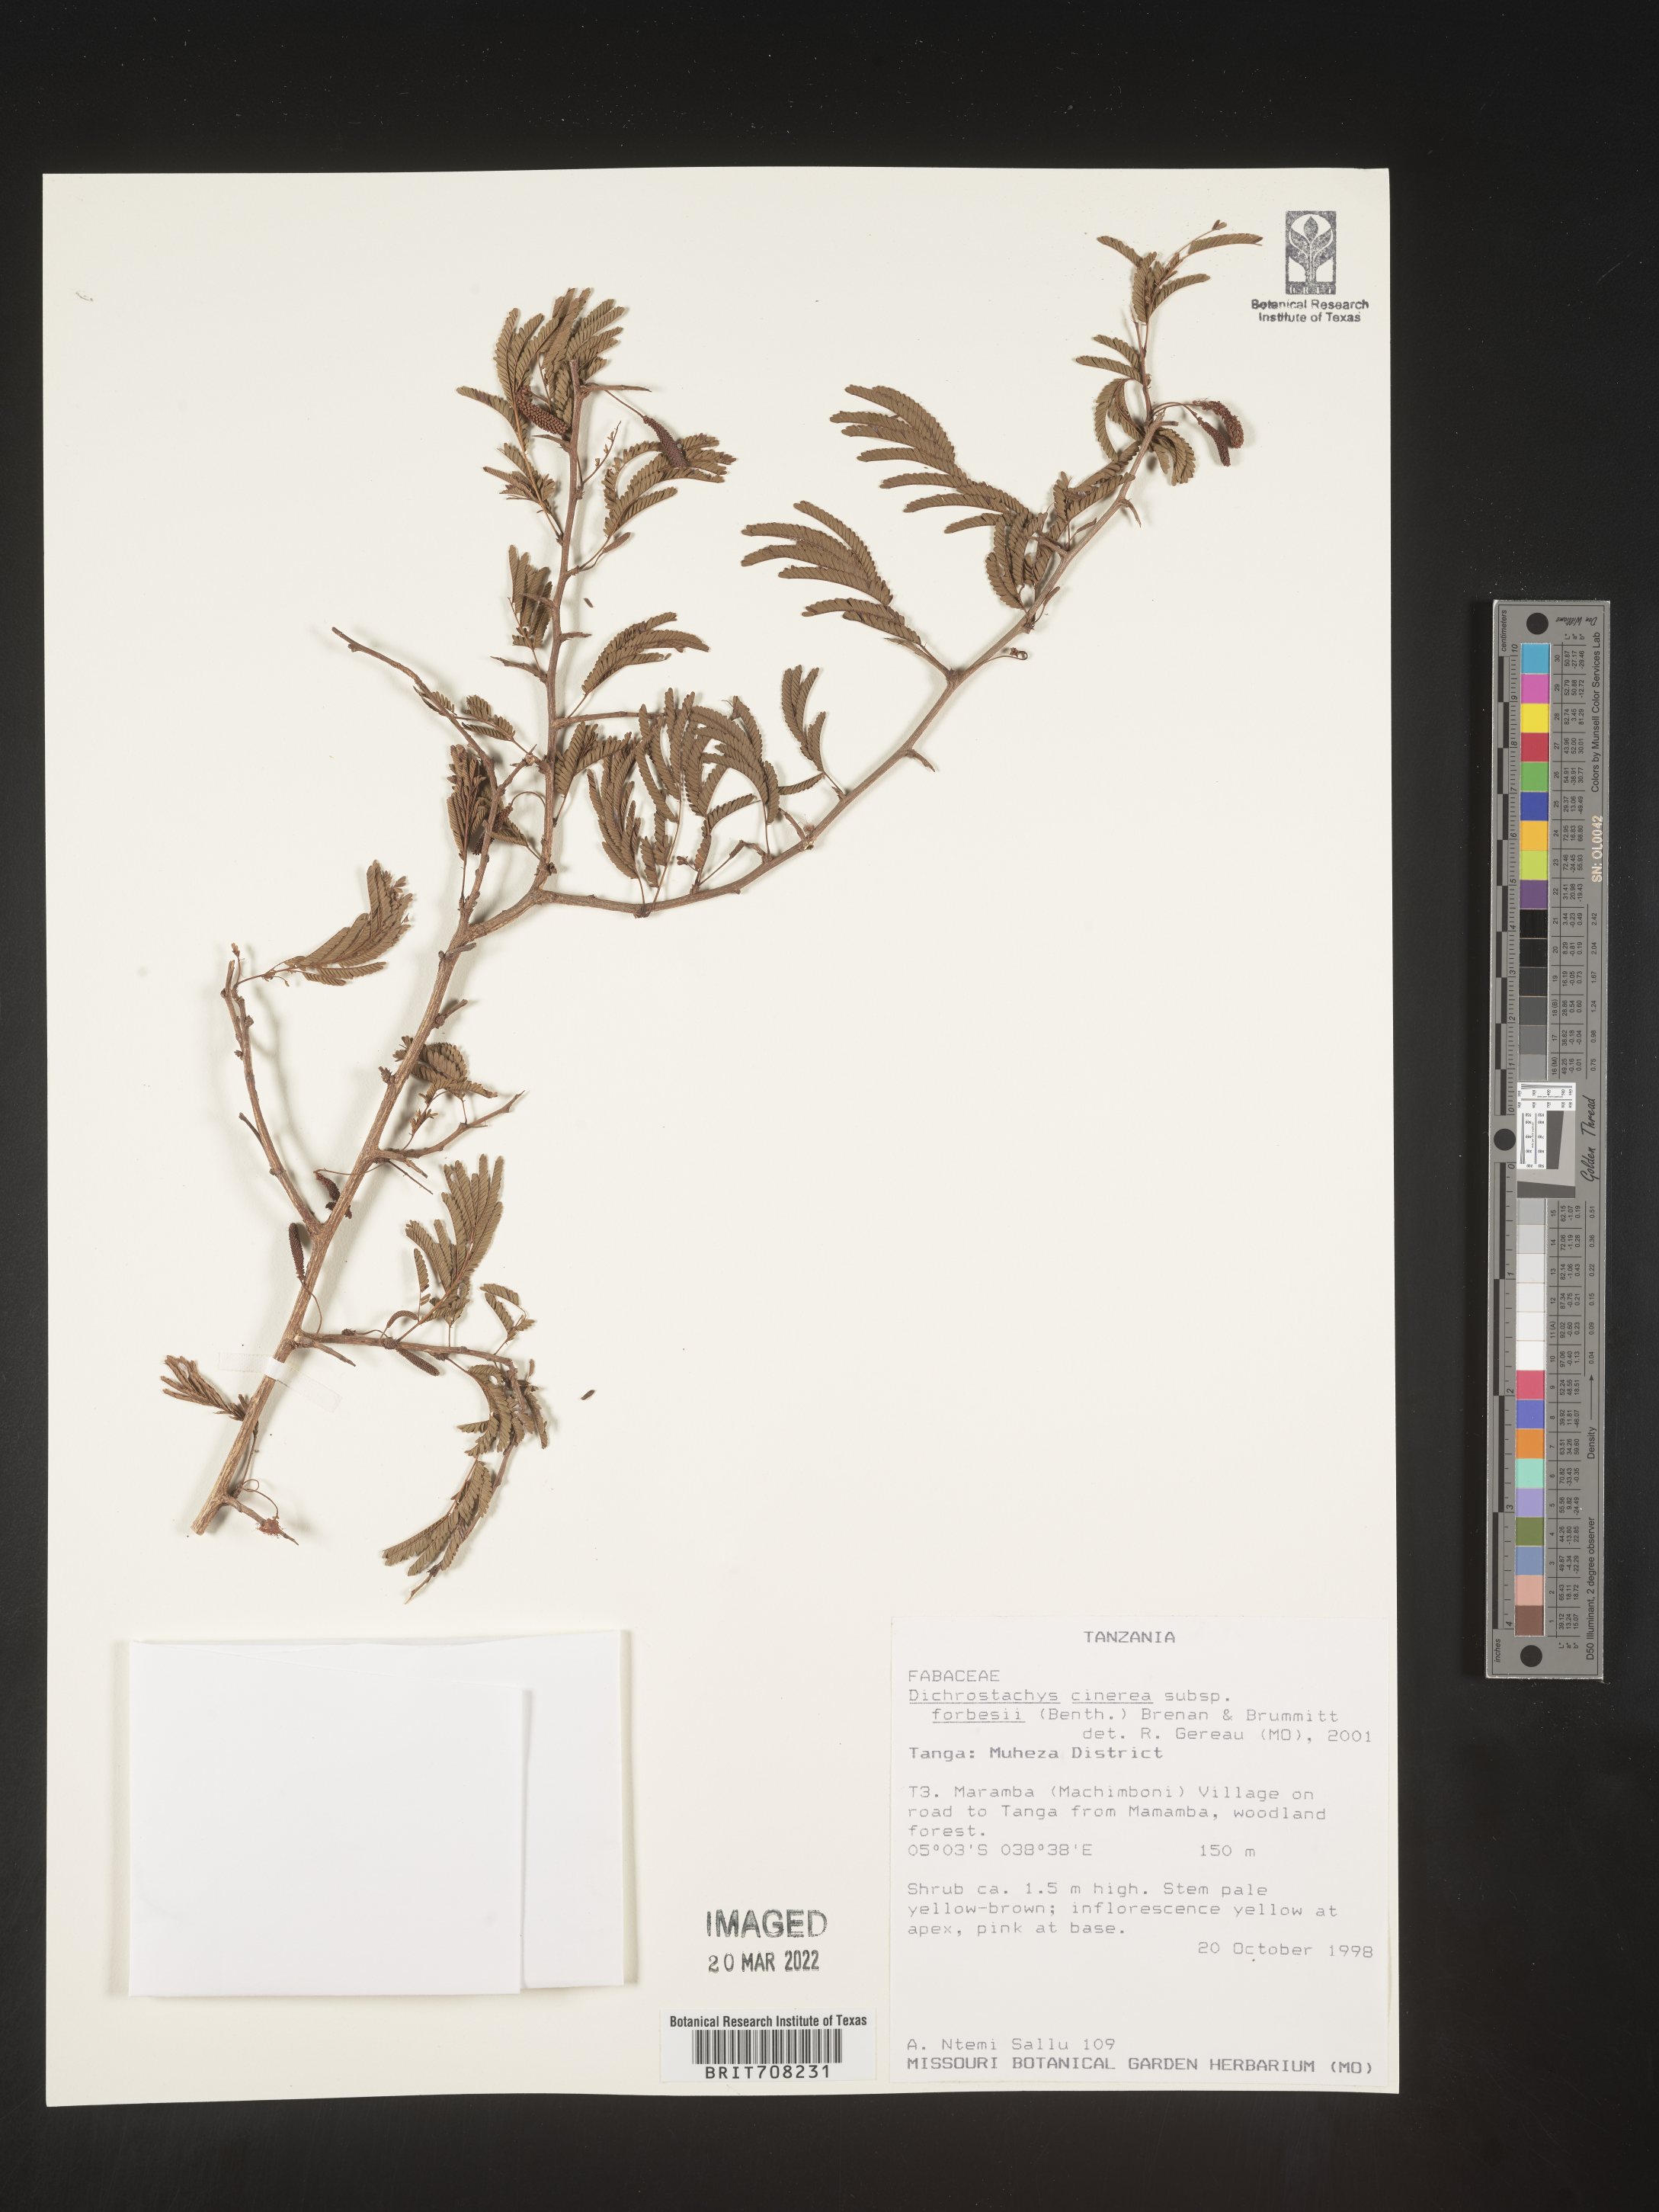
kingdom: Plantae
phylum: Tracheophyta
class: Magnoliopsida
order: Fabales
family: Fabaceae
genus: Dichrostachys
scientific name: Dichrostachys cinerea
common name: Sicklebush
